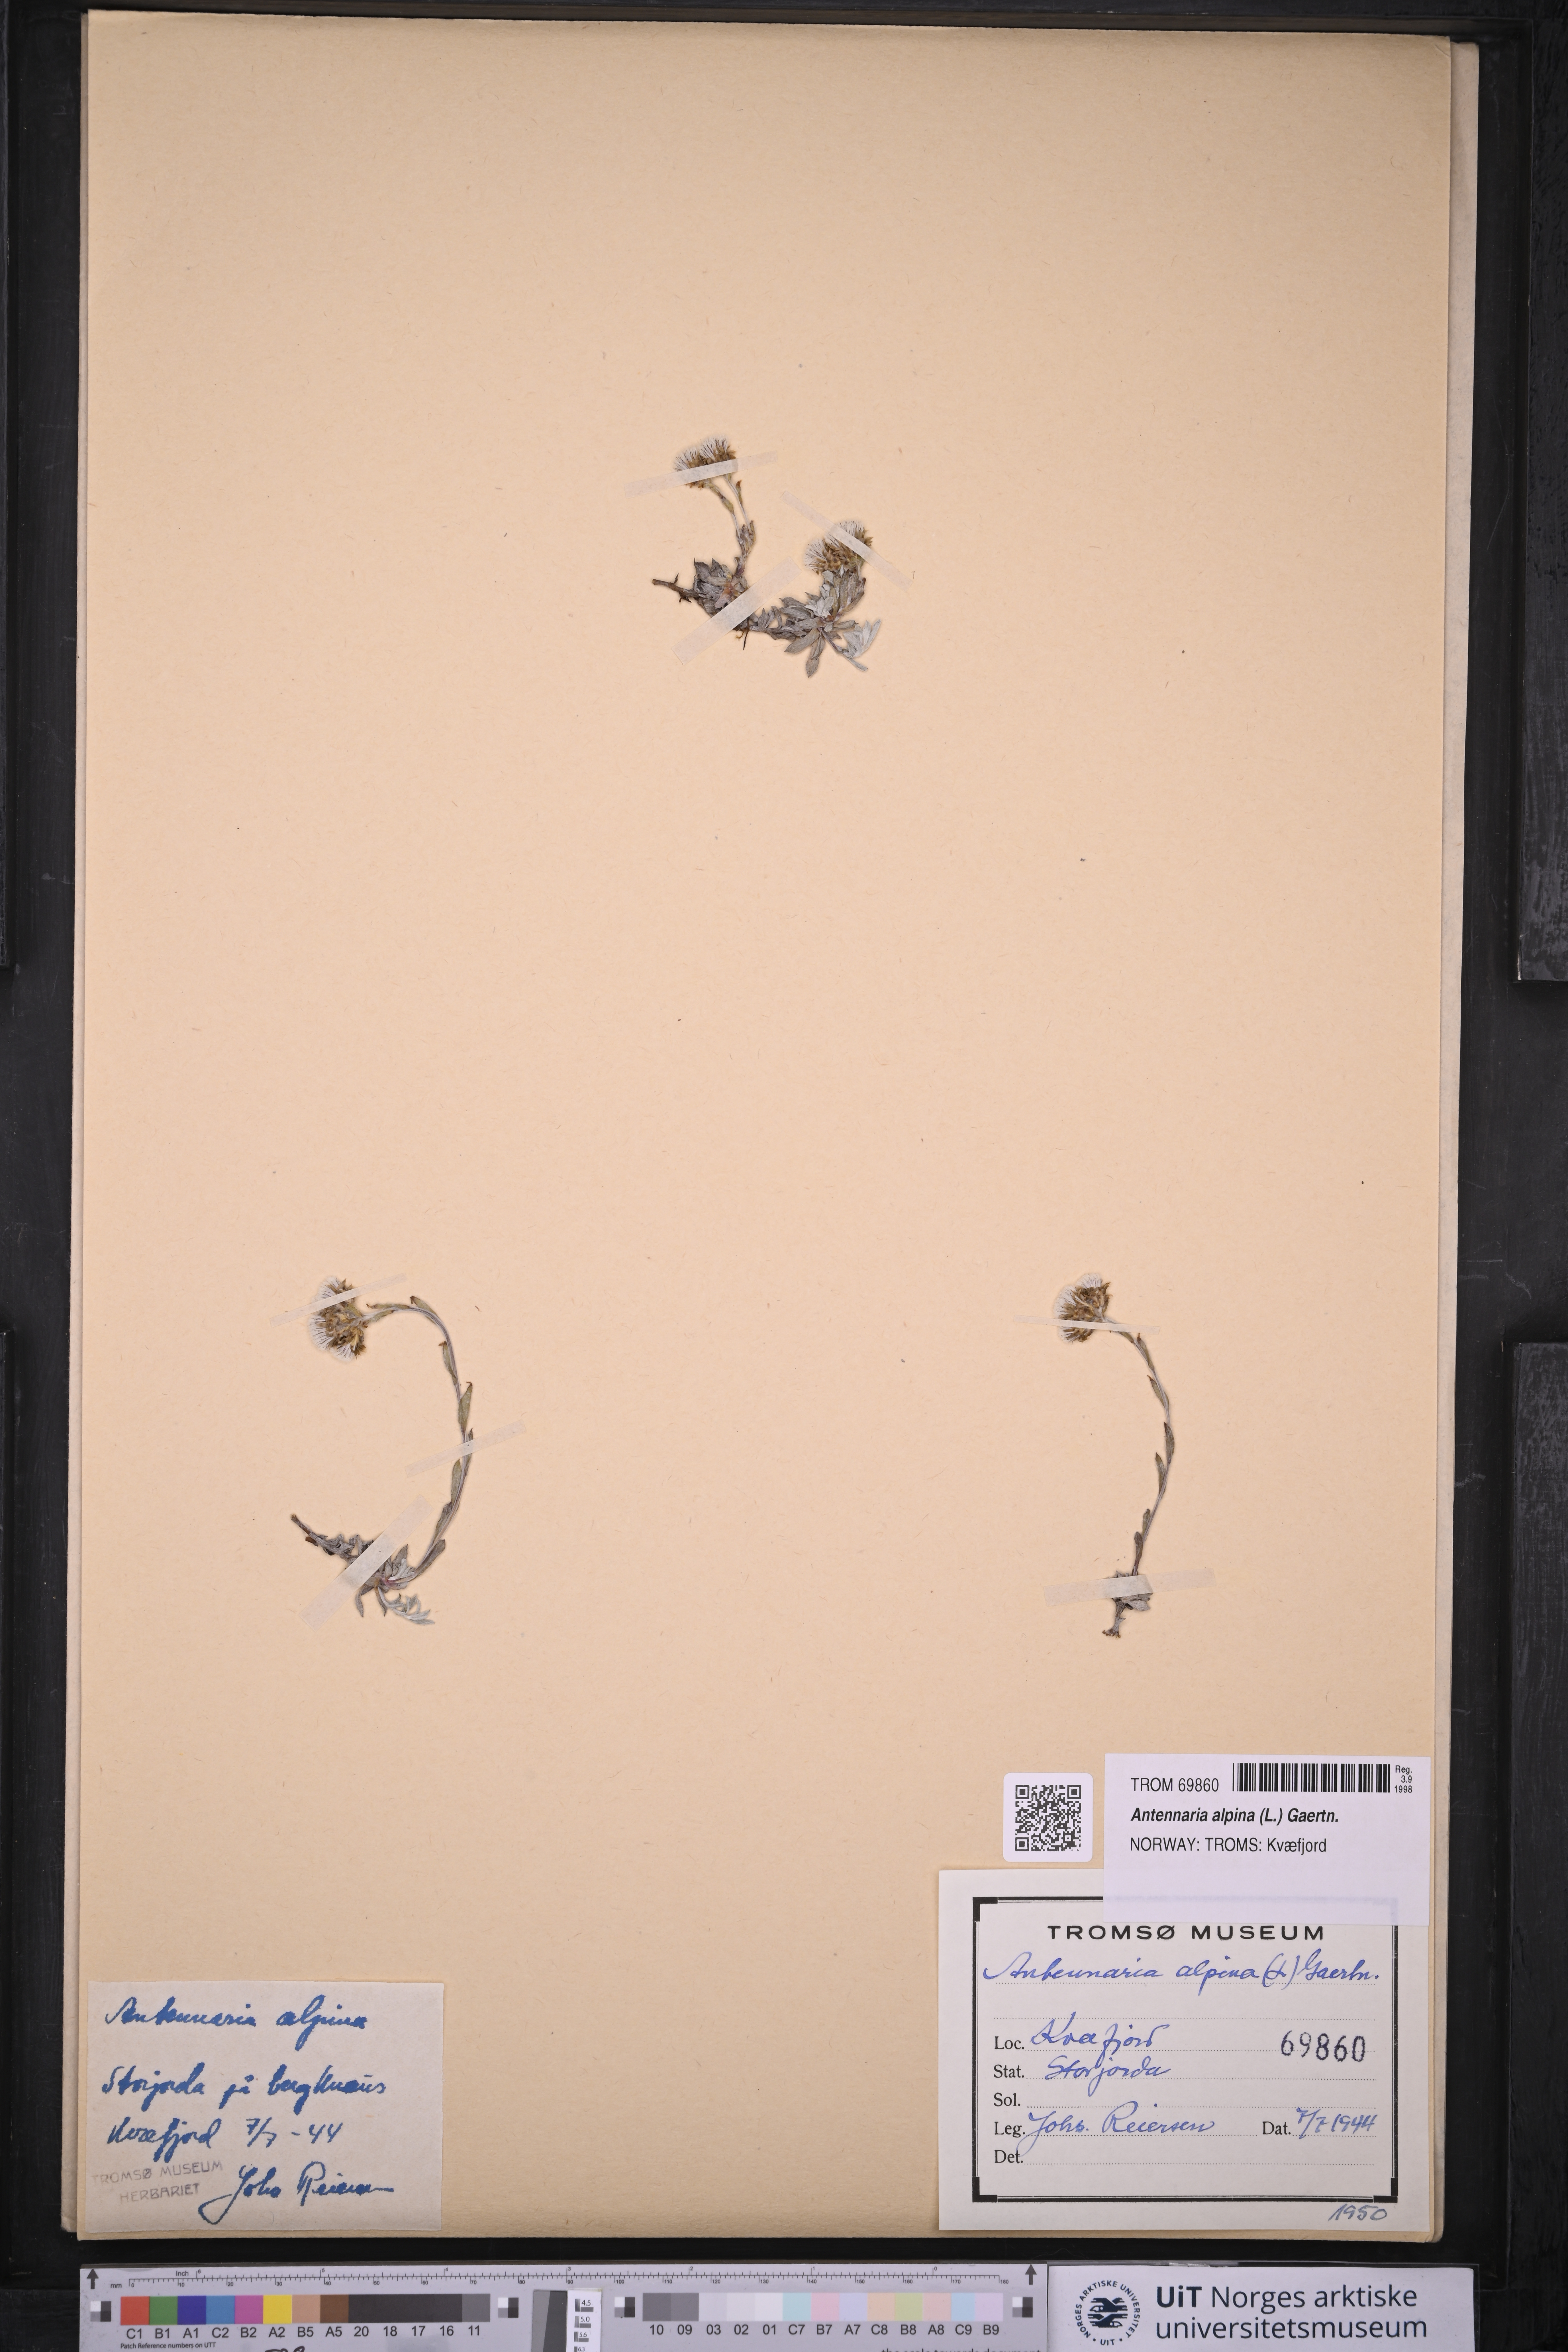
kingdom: Plantae
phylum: Tracheophyta
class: Magnoliopsida
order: Asterales
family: Asteraceae
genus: Antennaria
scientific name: Antennaria alpina
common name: Alpine pussytoes
